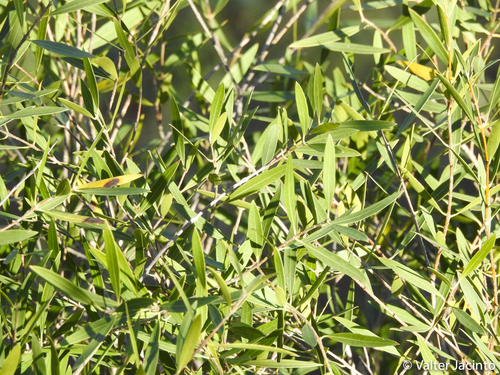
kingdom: Plantae
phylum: Tracheophyta
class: Magnoliopsida
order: Lamiales
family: Oleaceae
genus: Phillyrea
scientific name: Phillyrea angustifolia
